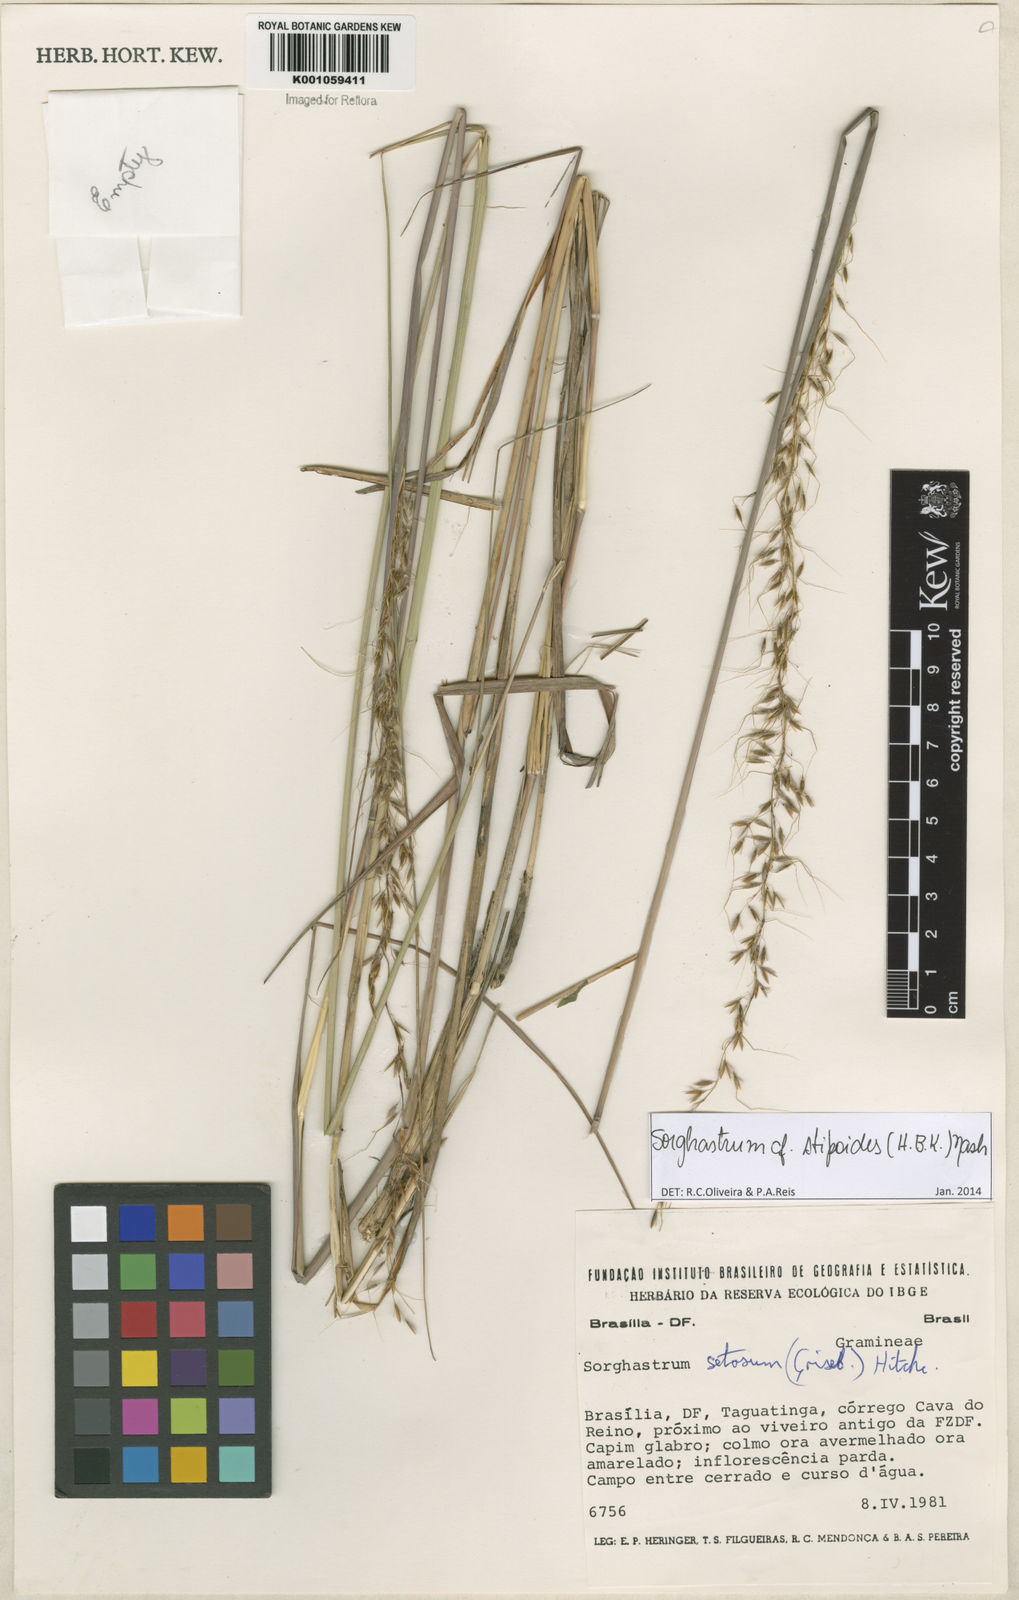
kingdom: Plantae
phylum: Tracheophyta
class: Liliopsida
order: Poales
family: Poaceae
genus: Sorghastrum
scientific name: Sorghastrum stipoides
